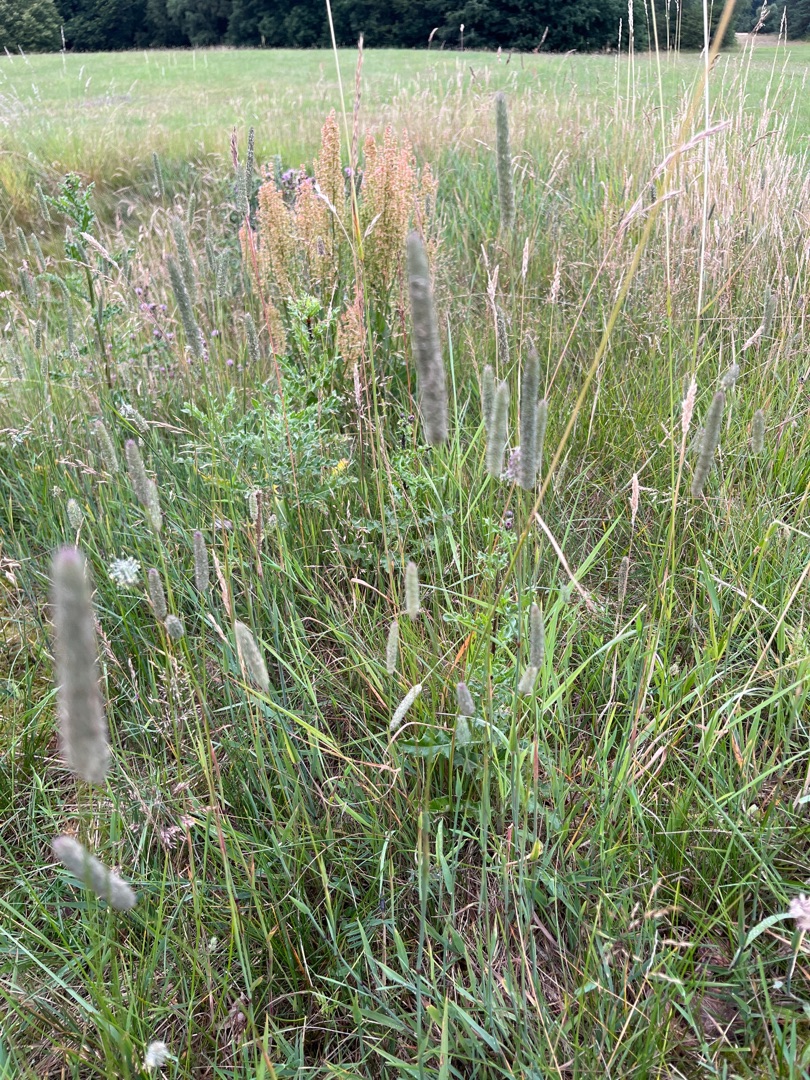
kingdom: Plantae
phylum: Tracheophyta
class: Liliopsida
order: Poales
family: Poaceae
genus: Phleum
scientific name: Phleum pratense
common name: Eng-rottehale
